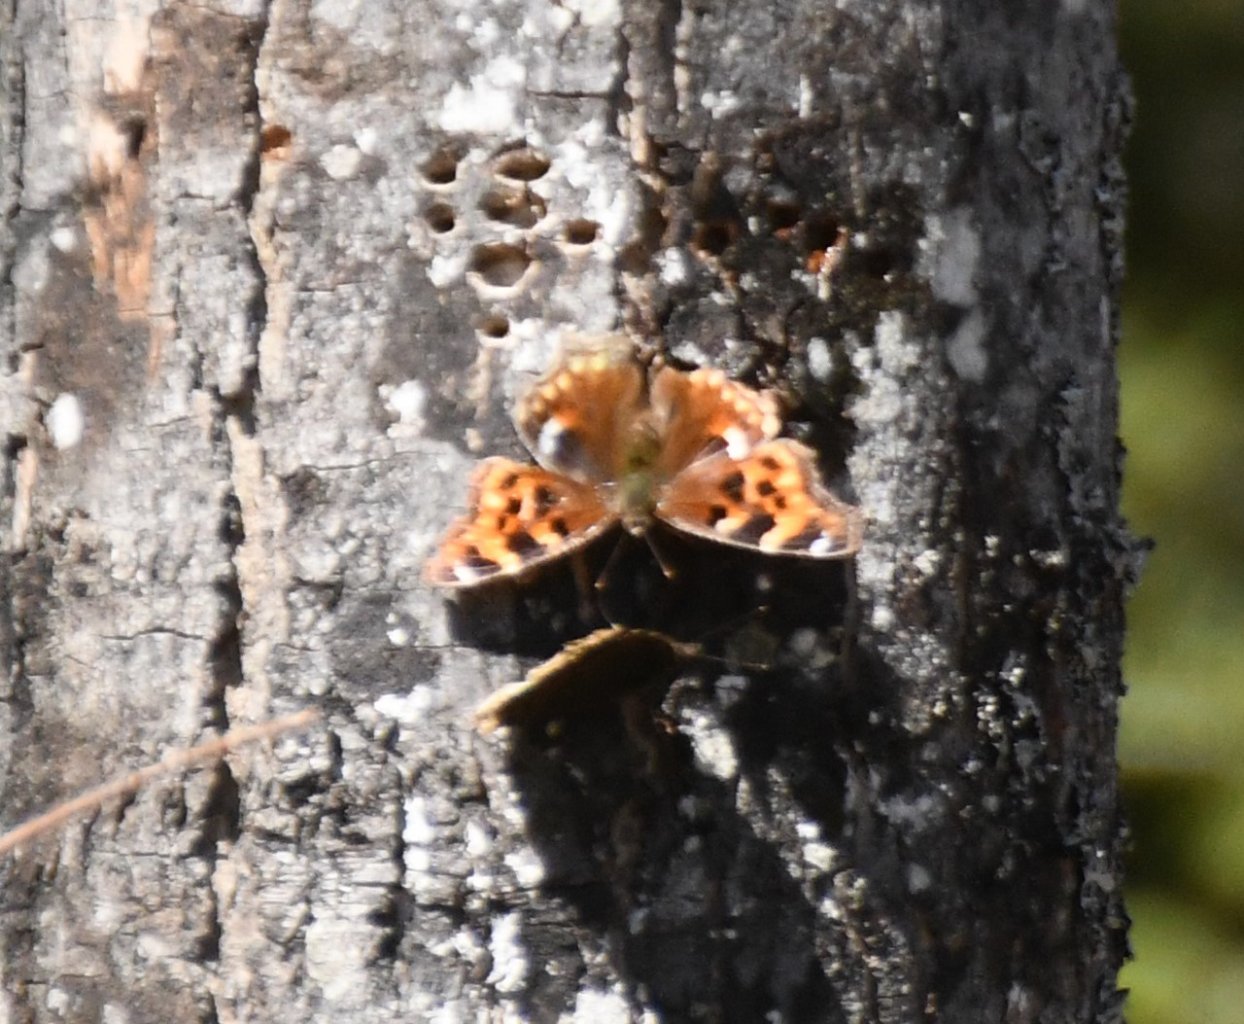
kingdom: Animalia
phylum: Arthropoda
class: Insecta
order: Lepidoptera
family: Nymphalidae
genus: Polygonia
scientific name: Polygonia vaualbum
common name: Compton Tortoiseshell
